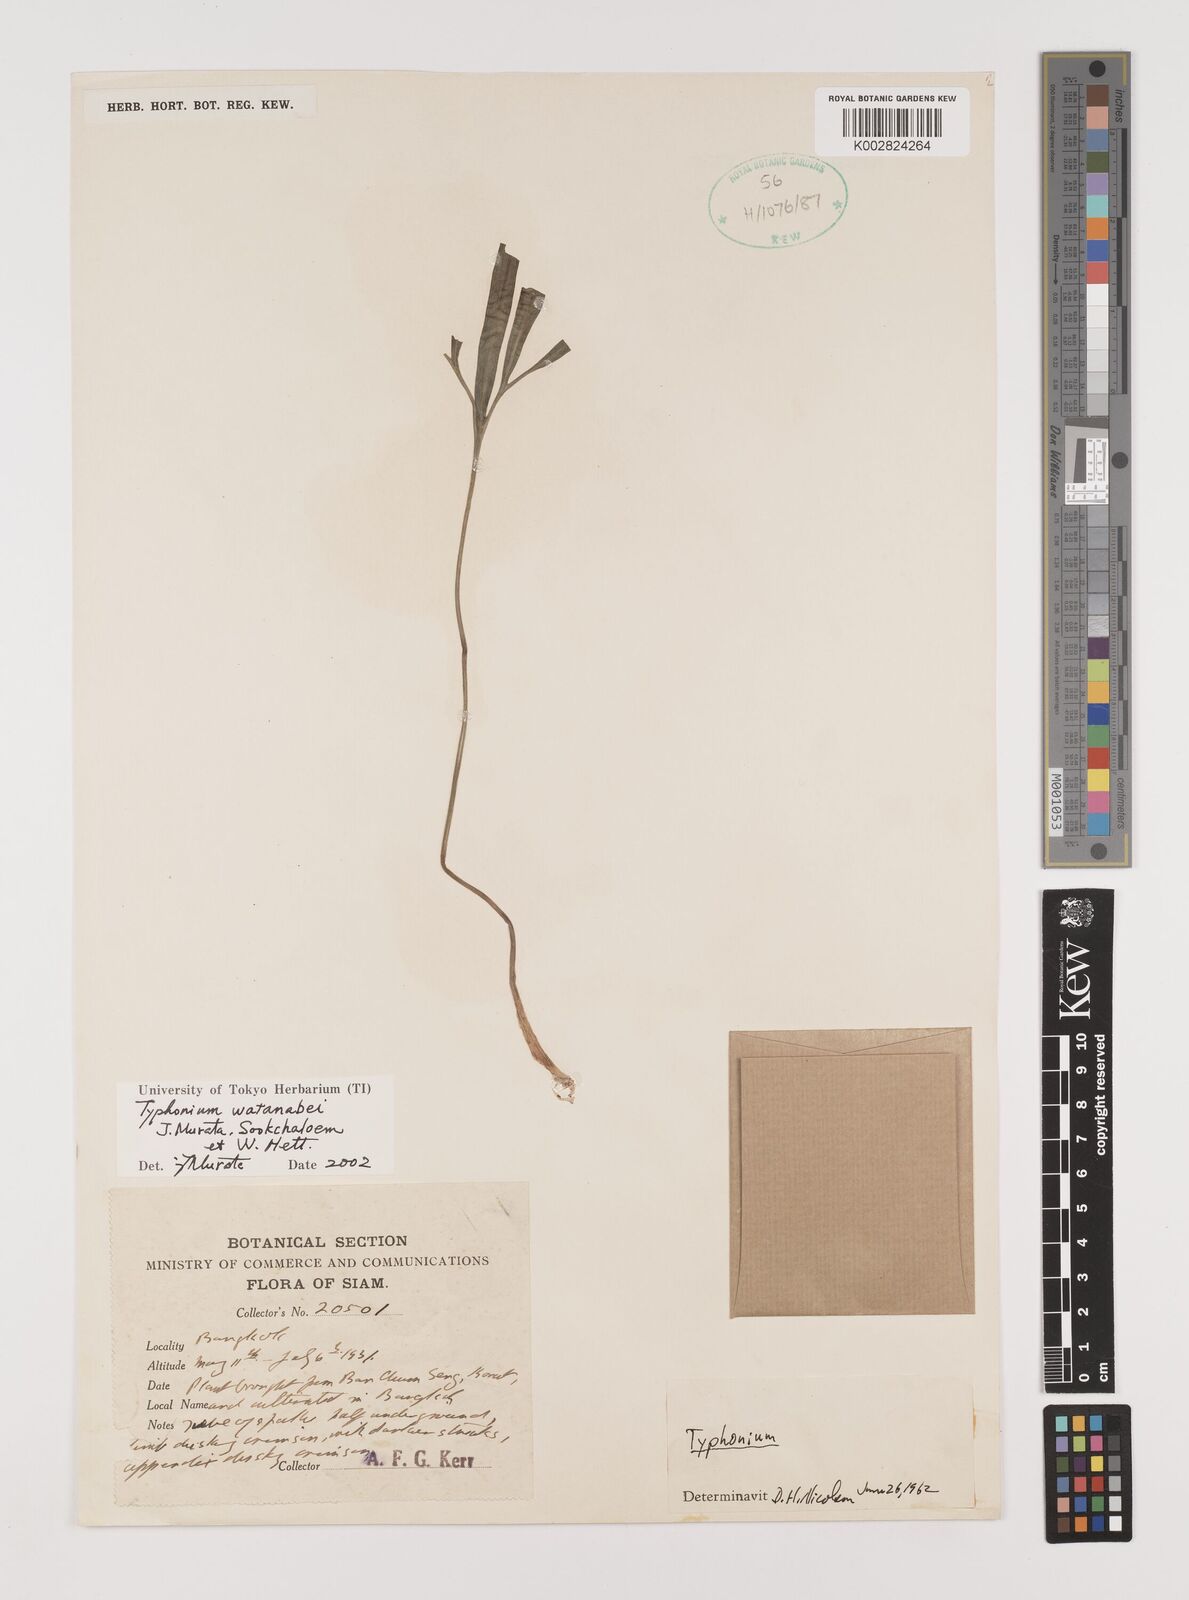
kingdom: Plantae
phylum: Tracheophyta
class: Liliopsida
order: Alismatales
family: Araceae
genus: Typhonium
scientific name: Typhonium watanabei
